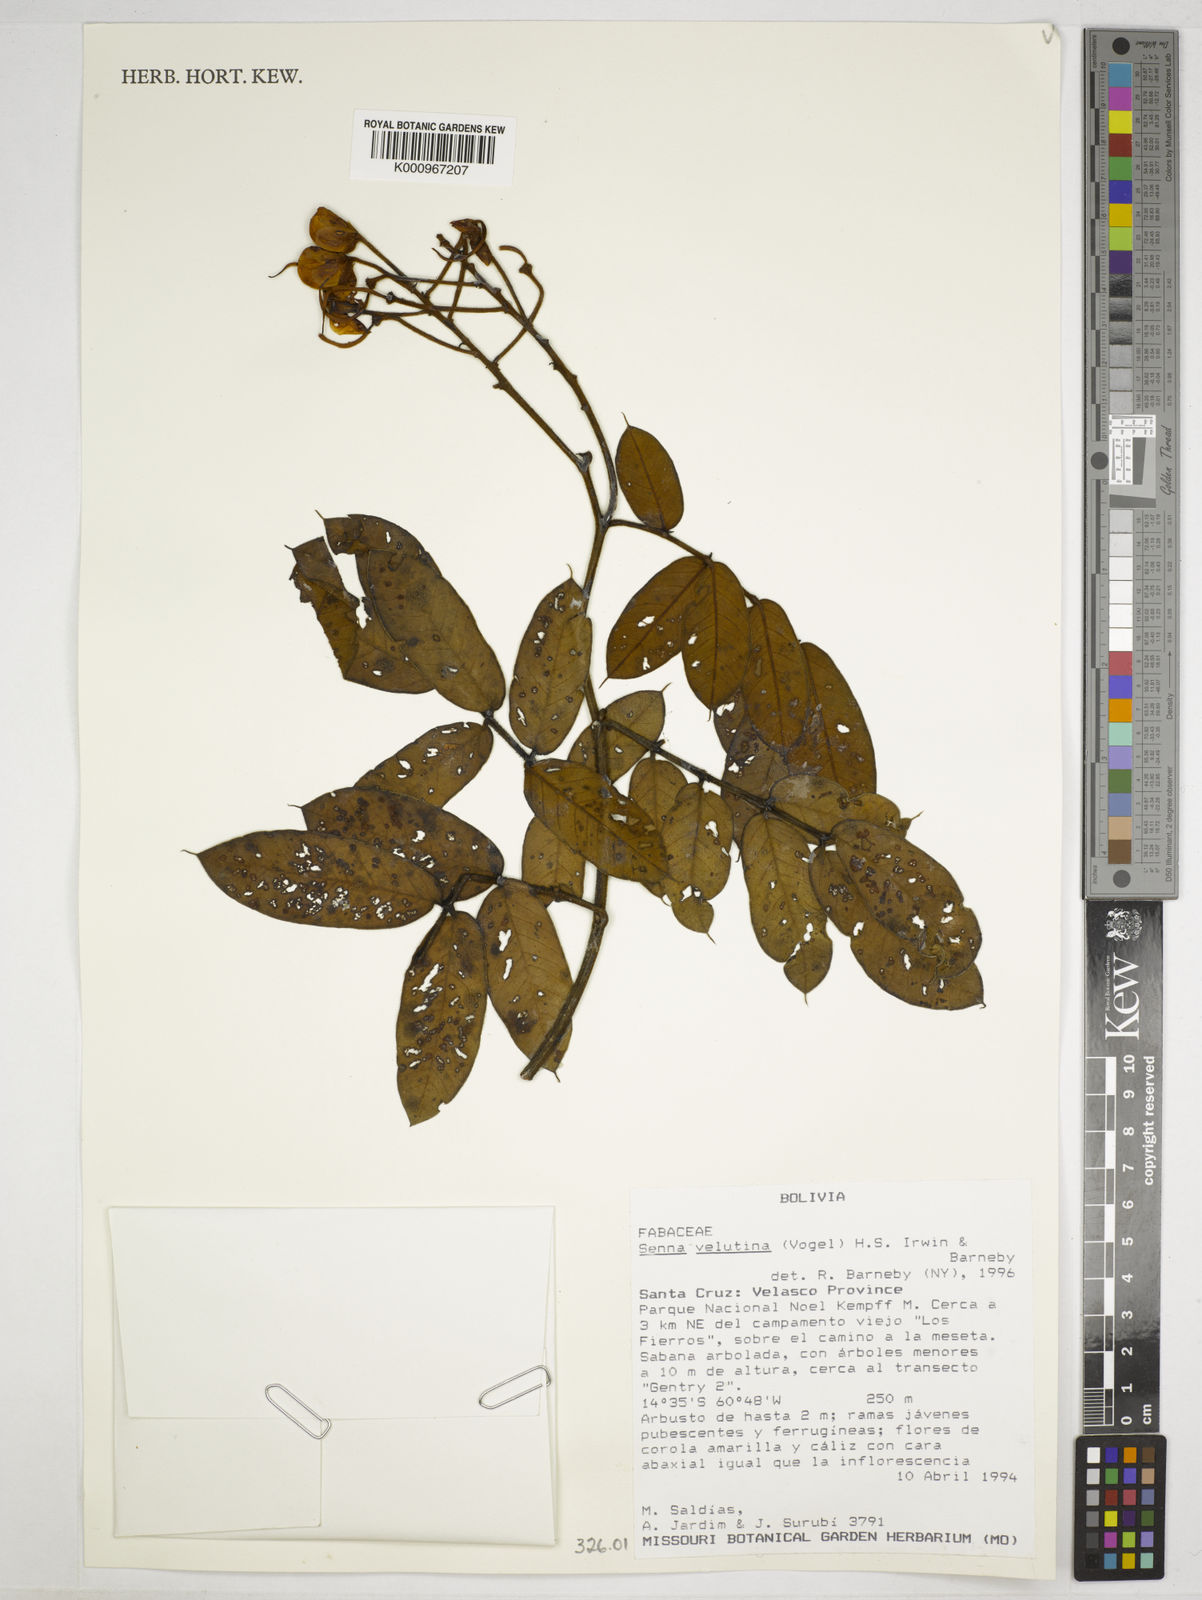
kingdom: Plantae
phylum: Tracheophyta
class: Magnoliopsida
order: Fabales
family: Fabaceae
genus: Senna
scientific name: Senna velutina
